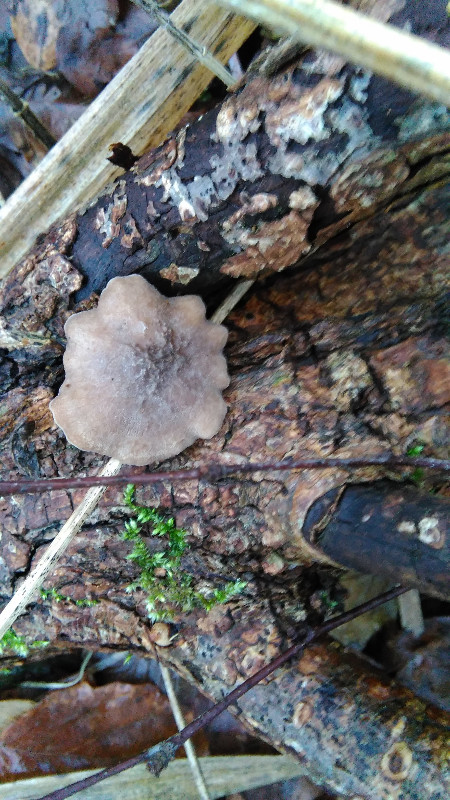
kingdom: Fungi
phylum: Basidiomycota
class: Agaricomycetes
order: Polyporales
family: Polyporaceae
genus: Lentinus
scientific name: Lentinus brumalis
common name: vinter-stilkporesvamp
